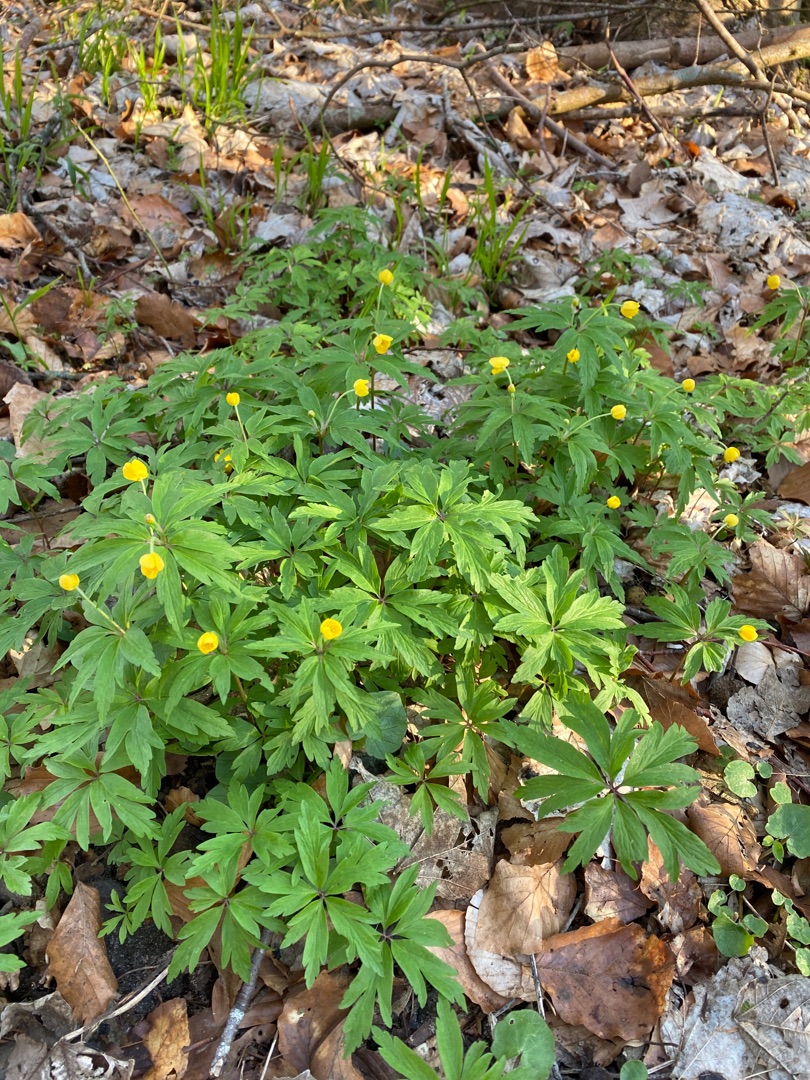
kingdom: Plantae
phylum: Tracheophyta
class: Magnoliopsida
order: Ranunculales
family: Ranunculaceae
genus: Anemone
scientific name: Anemone ranunculoides
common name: Gul anemone
